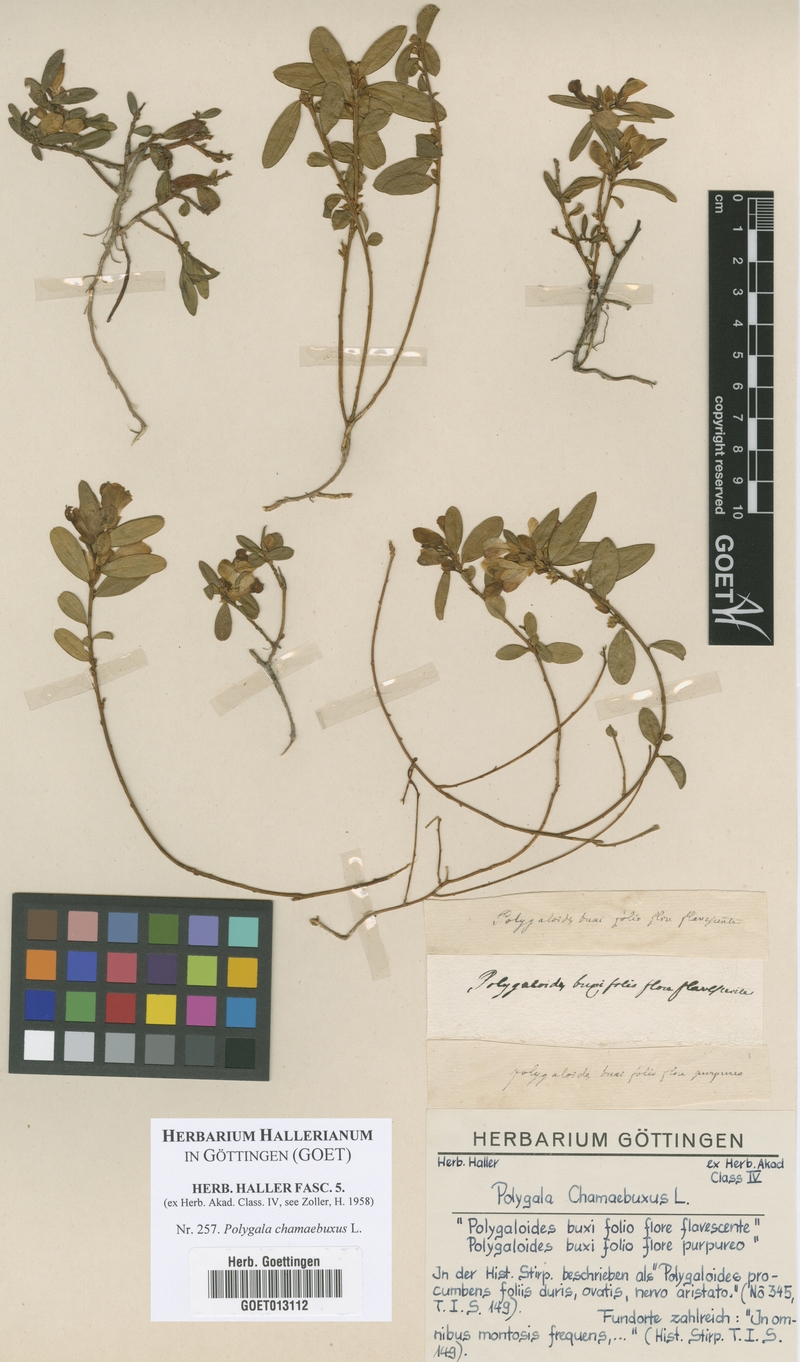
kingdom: Plantae
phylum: Tracheophyta
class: Magnoliopsida
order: Fabales
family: Polygalaceae
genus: Polygaloides
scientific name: Polygaloides chamaebuxus
